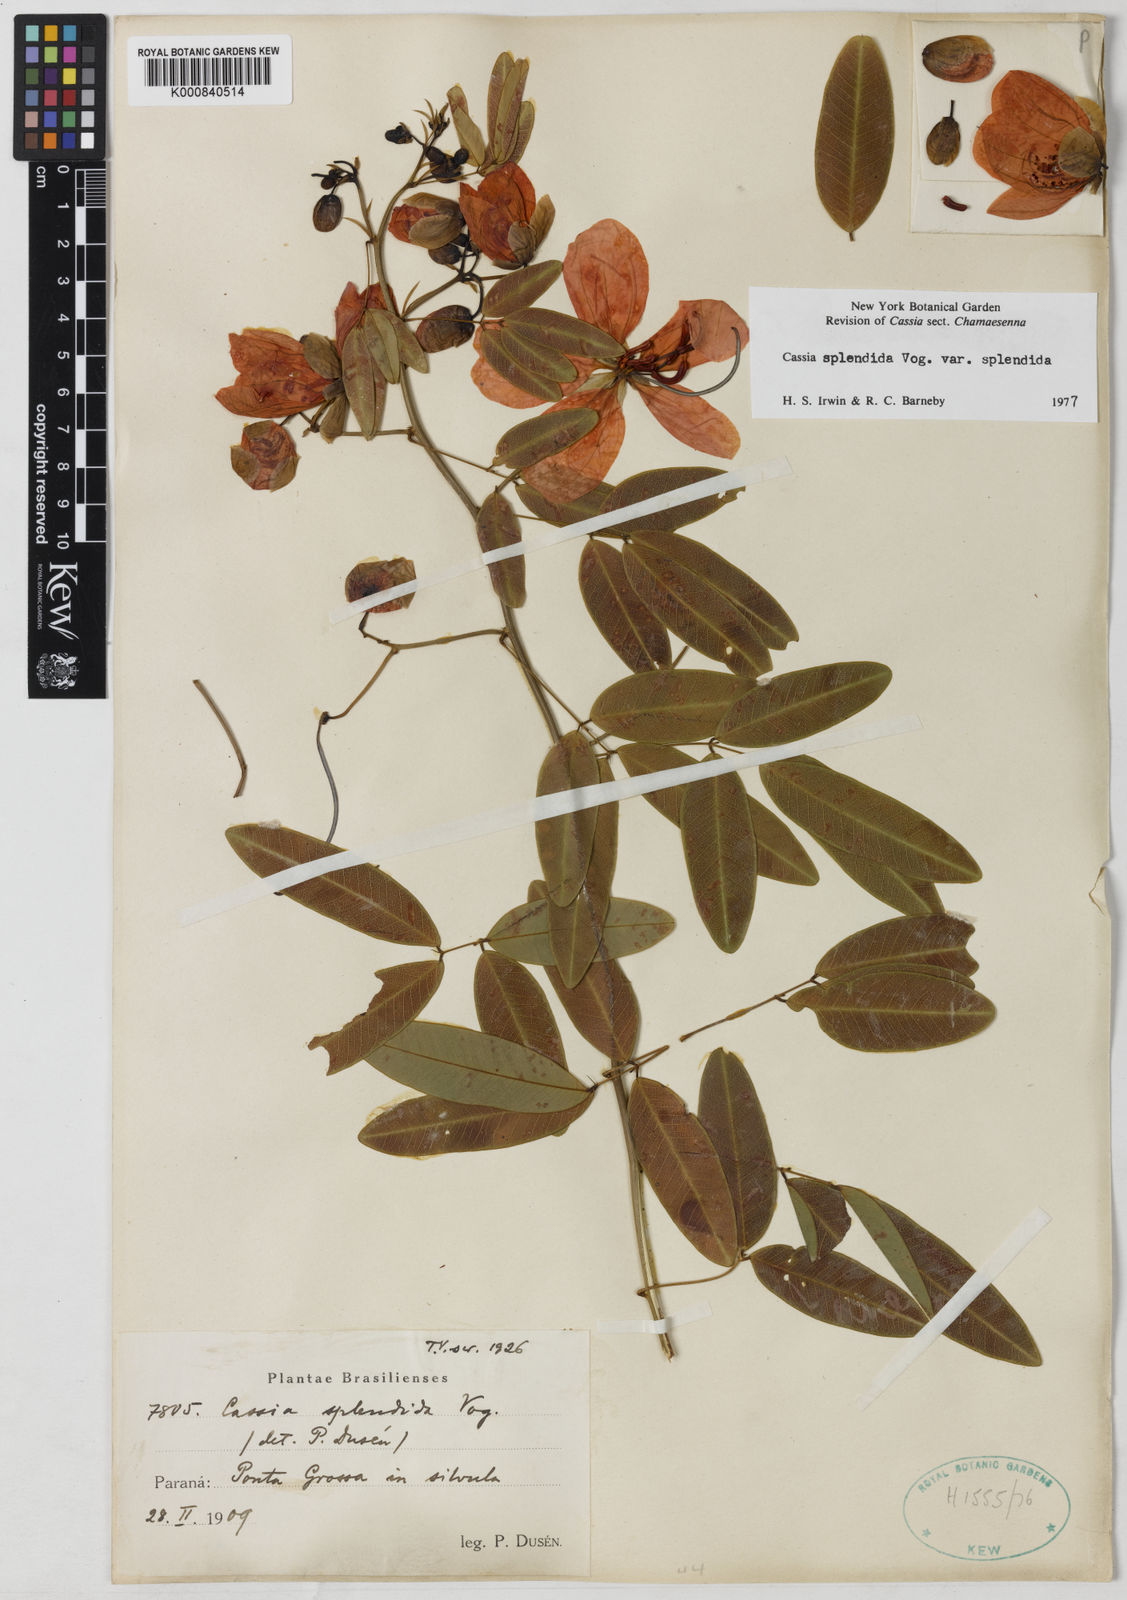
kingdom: Plantae
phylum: Tracheophyta
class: Magnoliopsida
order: Fabales
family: Fabaceae
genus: Senna
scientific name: Senna splendida
